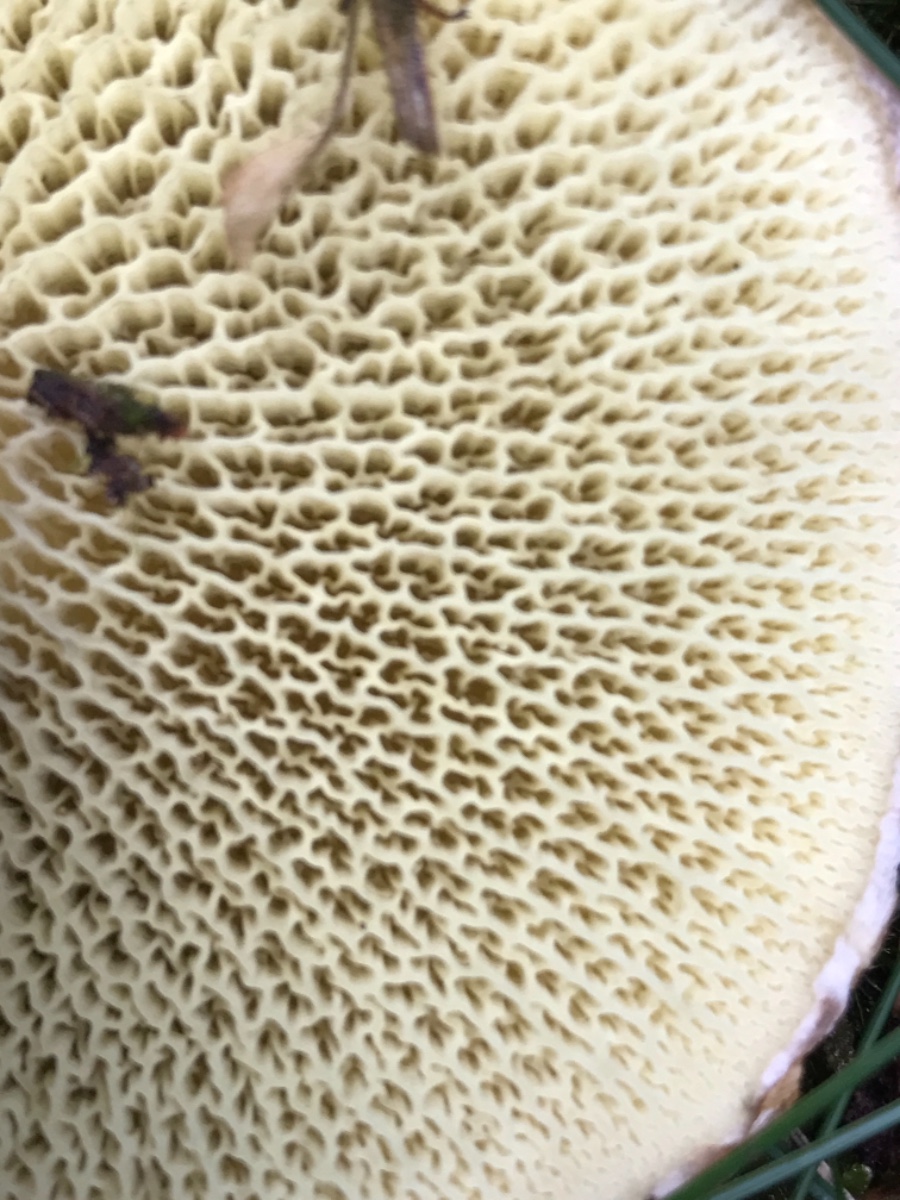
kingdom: Fungi
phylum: Basidiomycota
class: Agaricomycetes
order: Boletales
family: Suillaceae
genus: Suillus
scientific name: Suillus cavipes
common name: hulstokket slimrørhat
